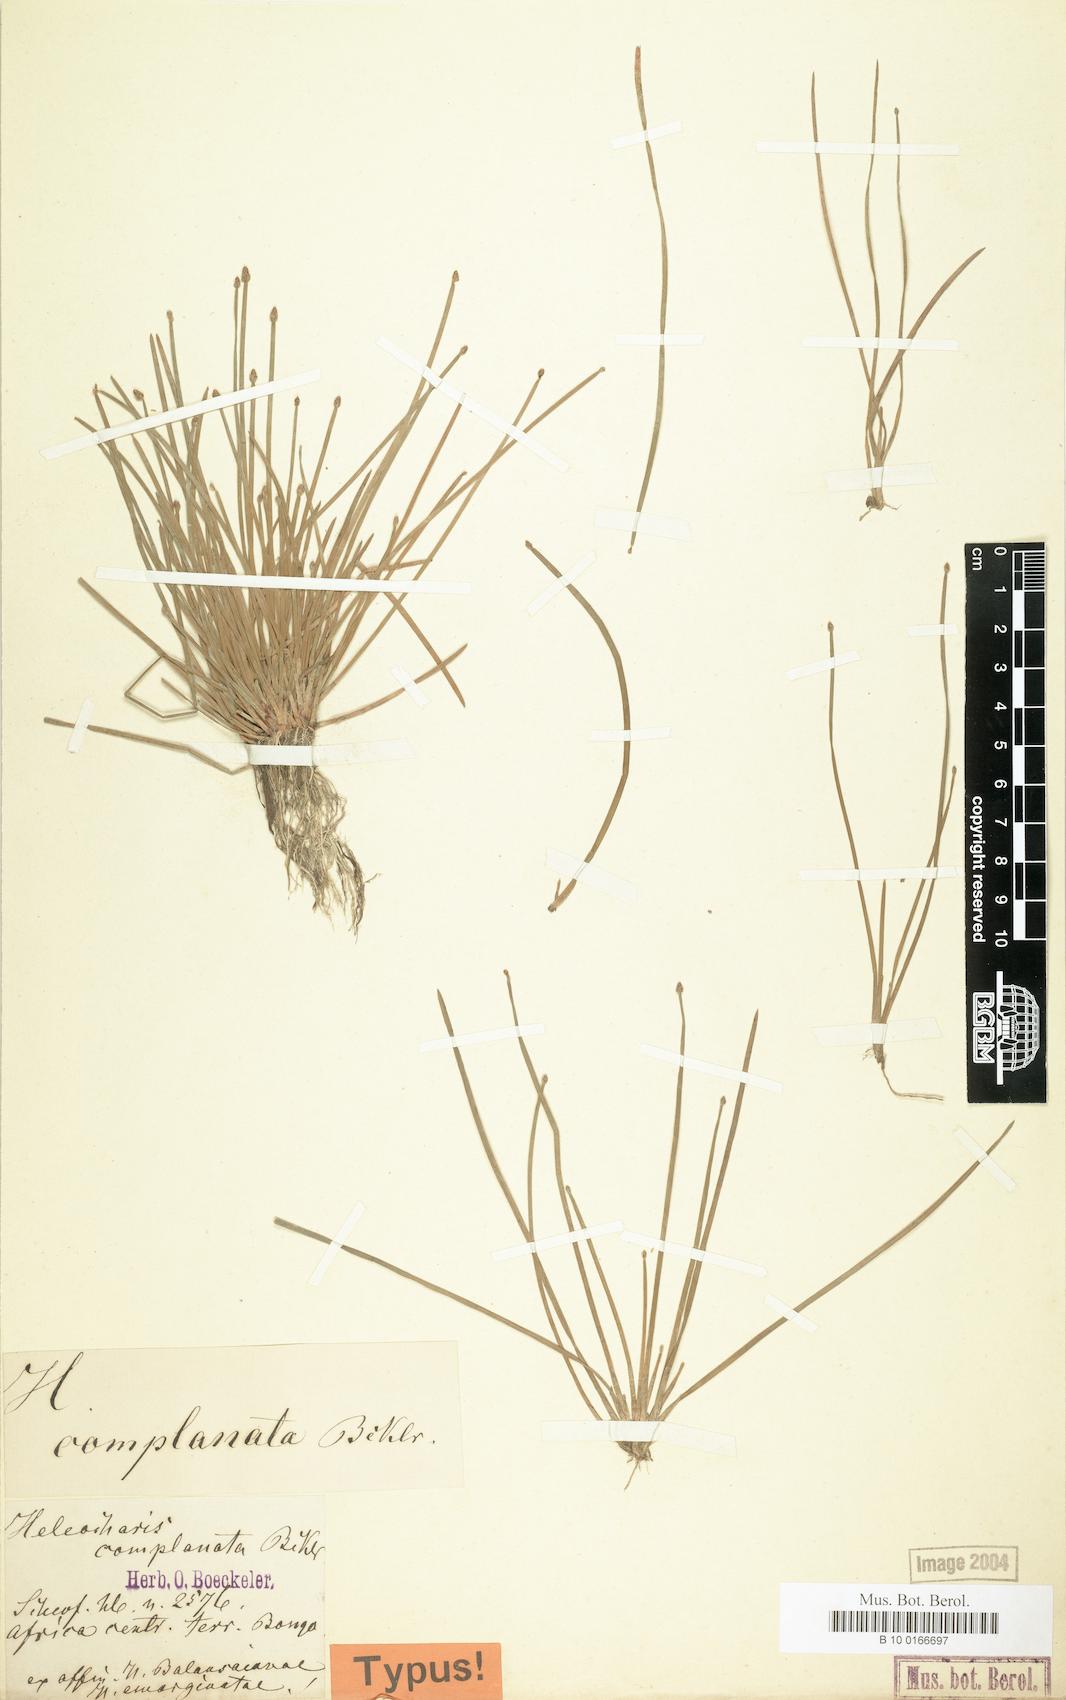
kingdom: Plantae
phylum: Tracheophyta
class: Liliopsida
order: Poales
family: Cyperaceae
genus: Eleocharis
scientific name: Eleocharis nigrescens
